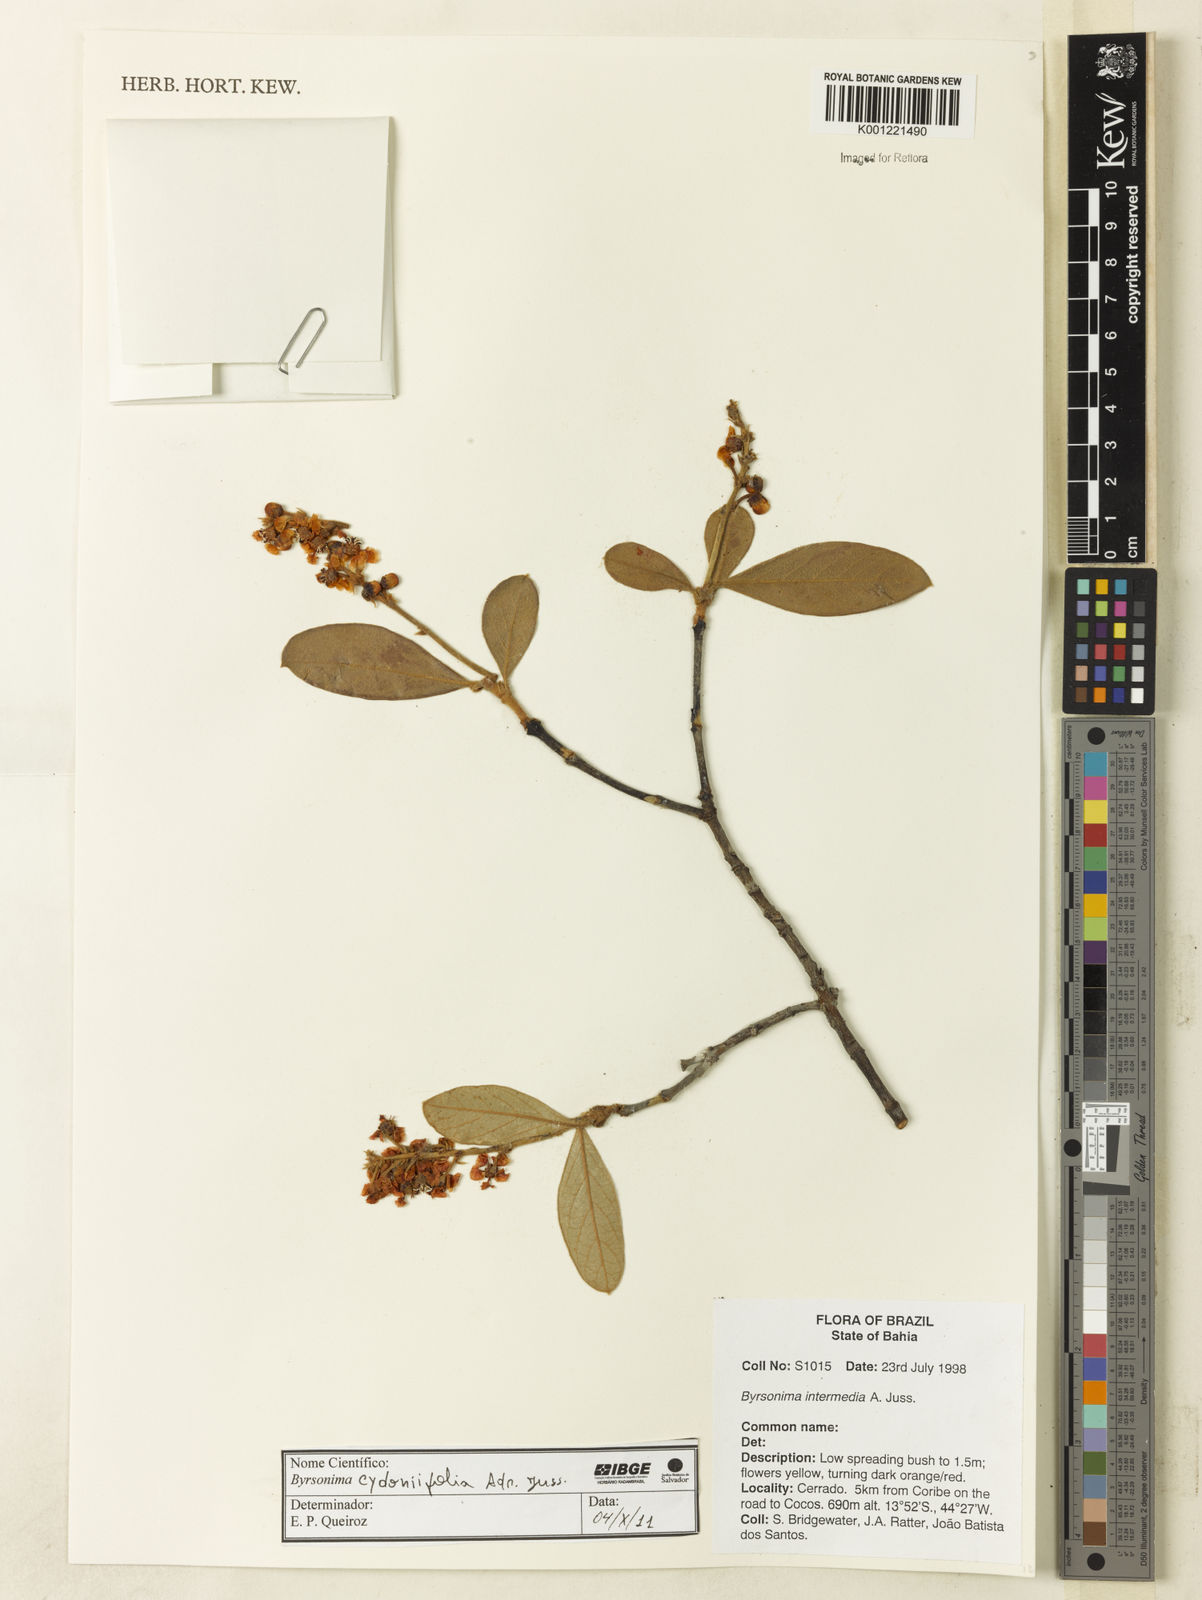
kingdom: Plantae
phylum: Tracheophyta
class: Magnoliopsida
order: Malpighiales
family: Malpighiaceae
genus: Byrsonima
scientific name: Byrsonima cydoniifolia
